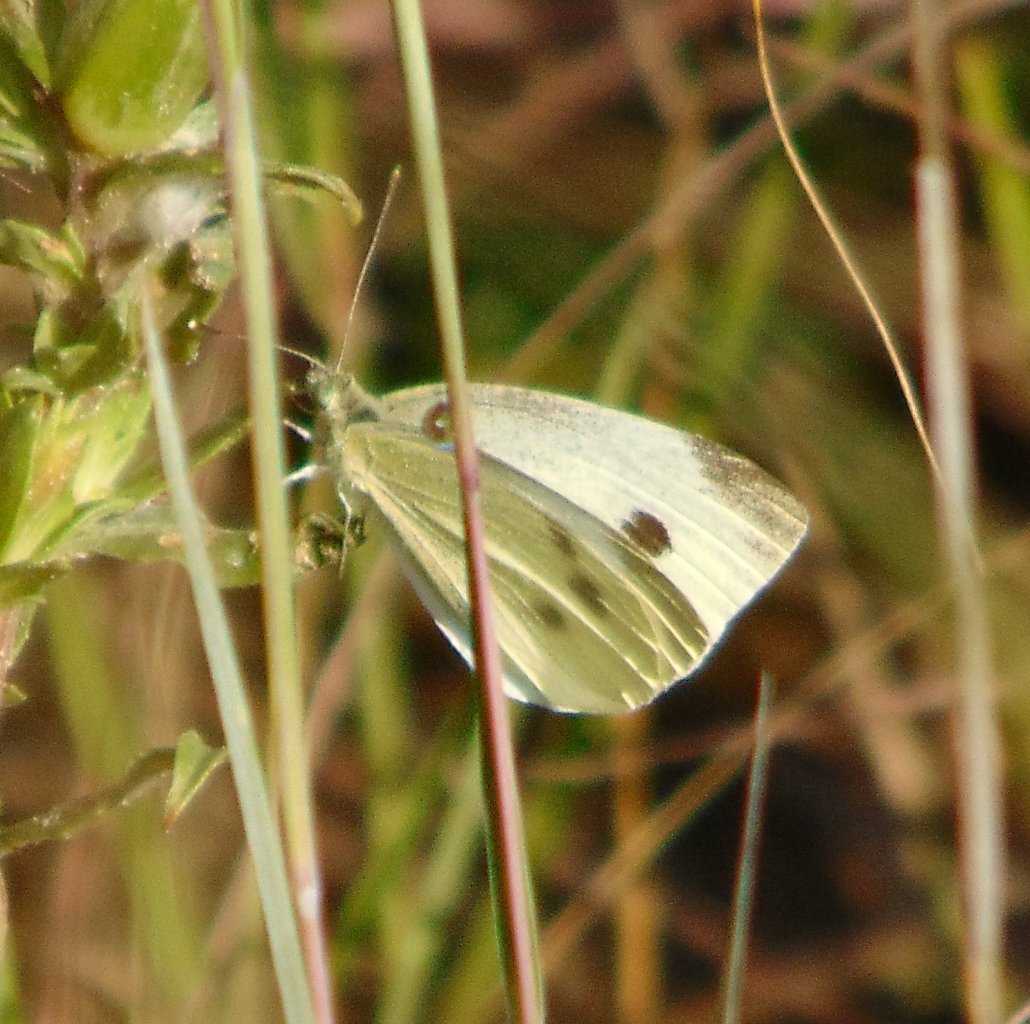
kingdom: Animalia
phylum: Arthropoda
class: Insecta
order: Lepidoptera
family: Pieridae
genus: Pieris
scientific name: Pieris rapae
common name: Cabbage White
